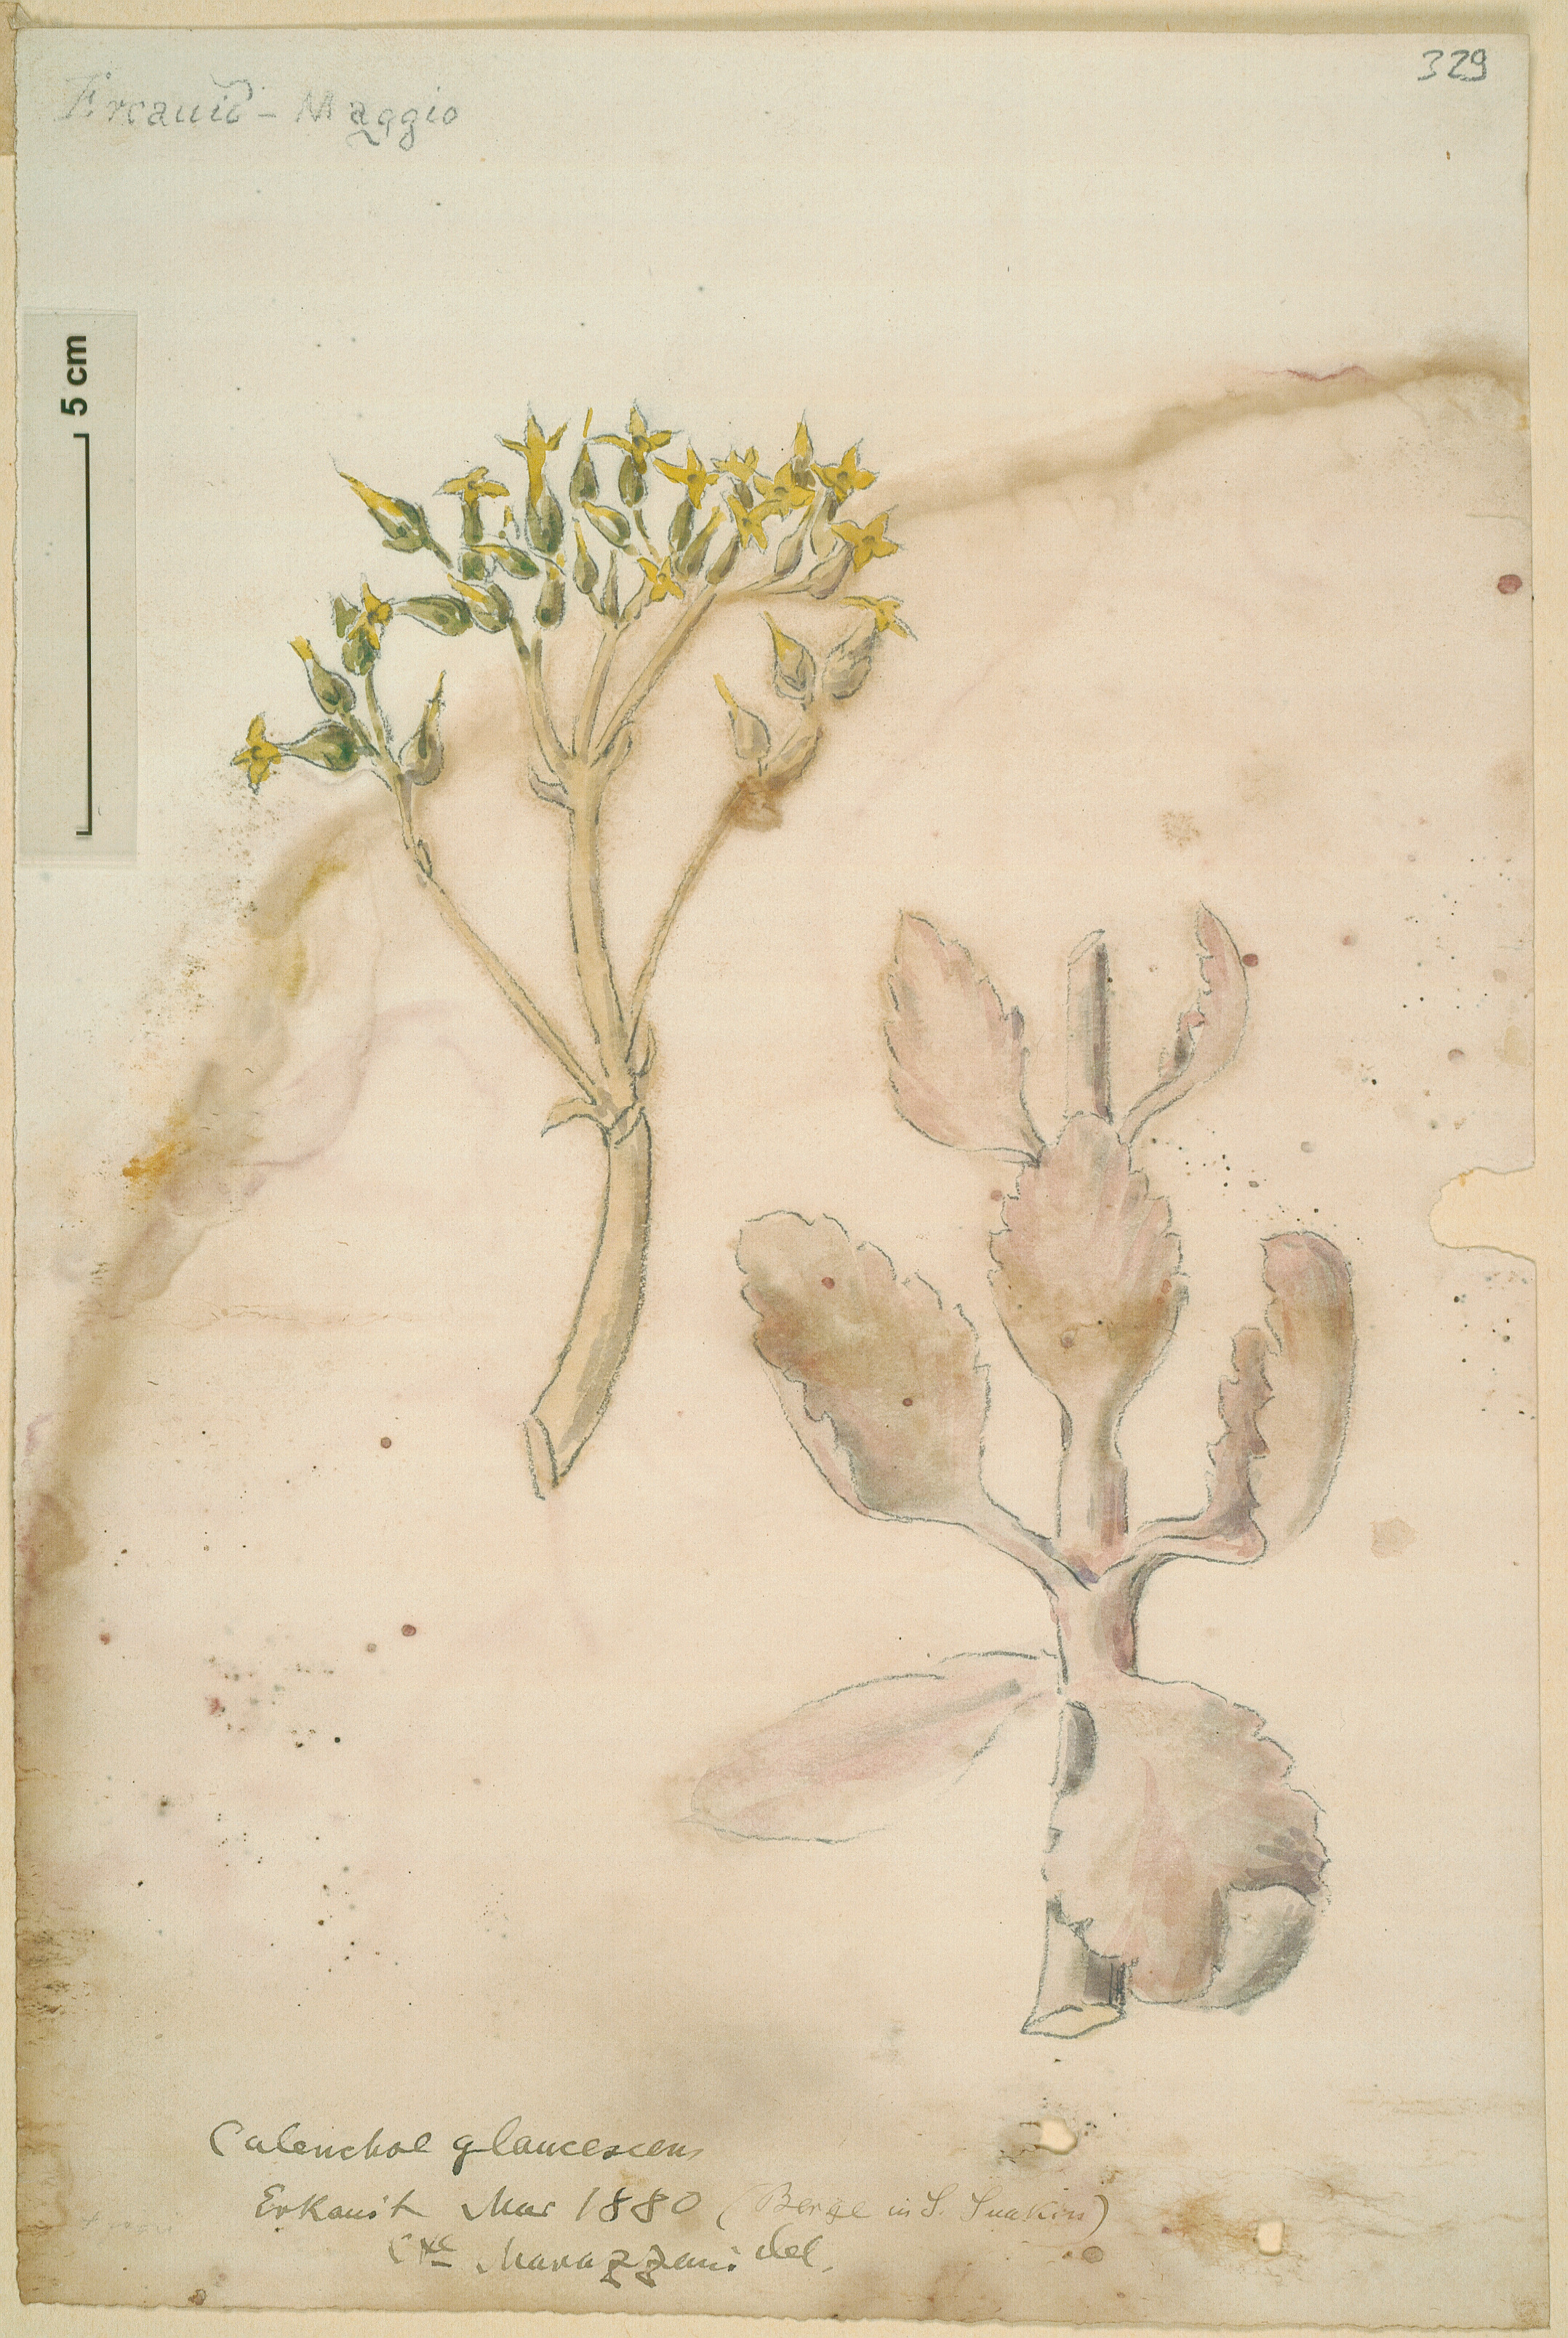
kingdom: Plantae
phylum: Tracheophyta
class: Magnoliopsida
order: Saxifragales
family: Crassulaceae
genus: Kalanchoe
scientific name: Kalanchoe laciniata
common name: Christmastree plant
